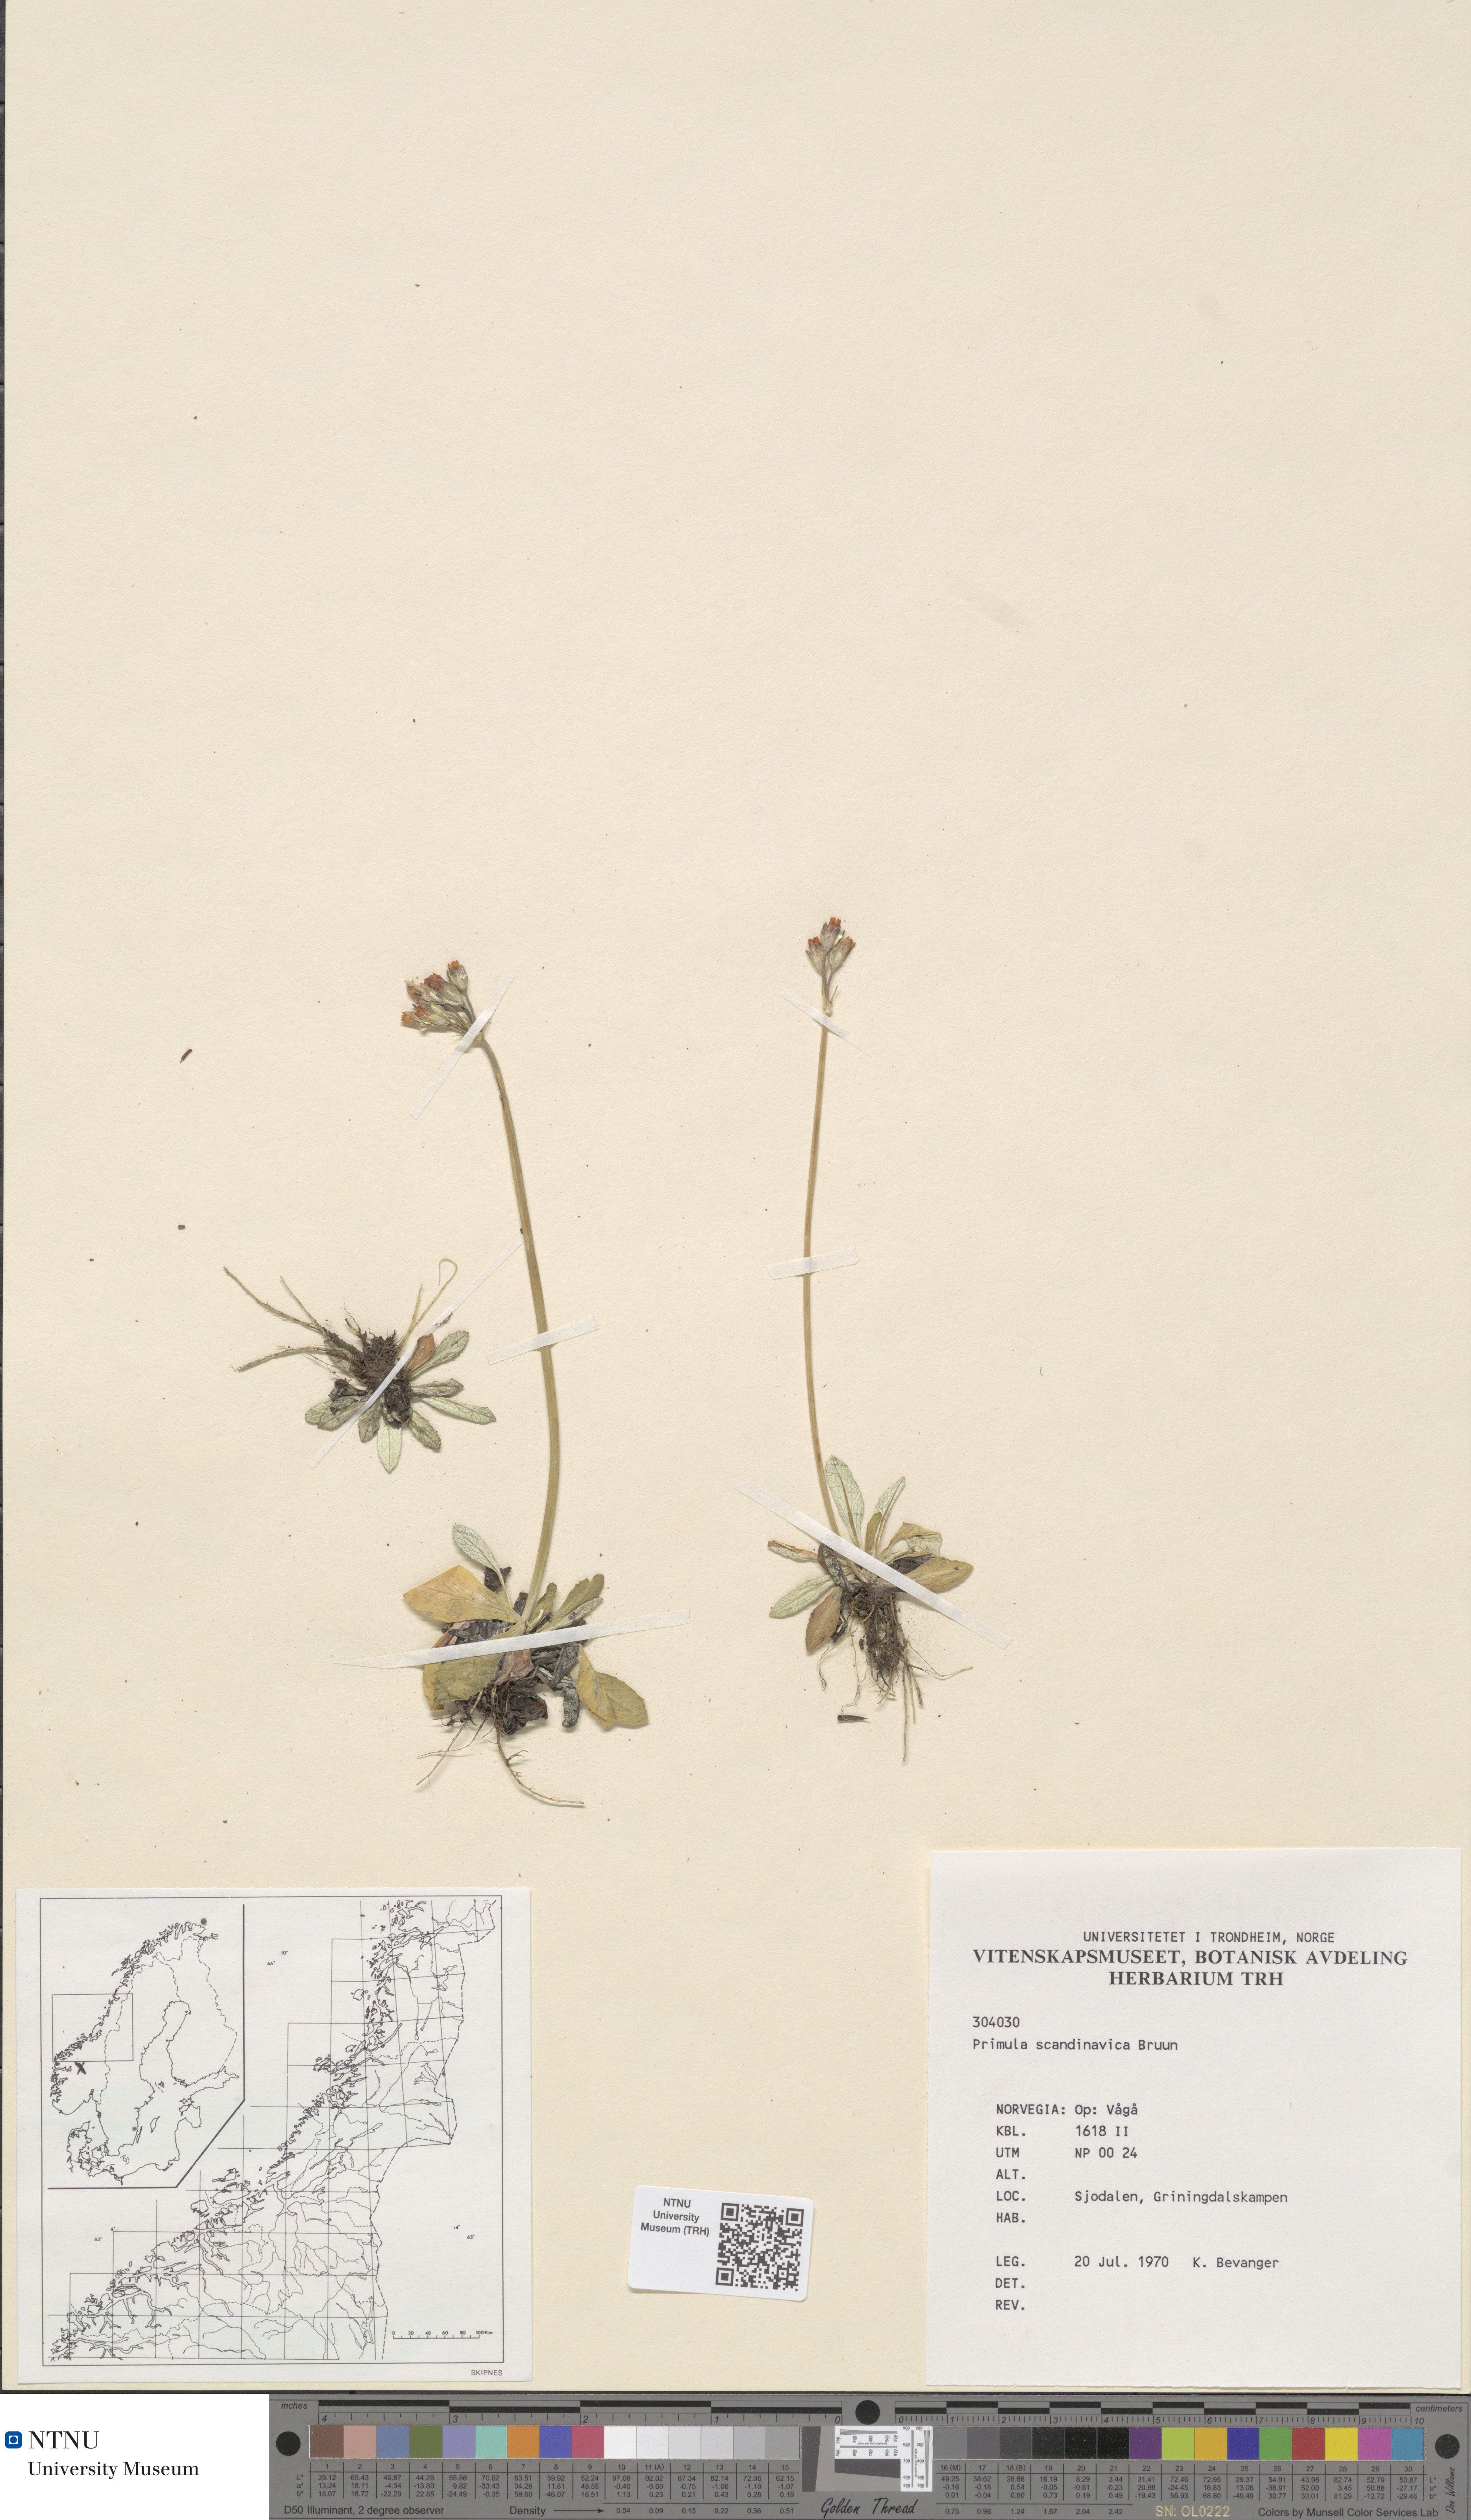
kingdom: Plantae
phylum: Tracheophyta
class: Magnoliopsida
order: Ericales
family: Primulaceae
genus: Primula
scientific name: Primula scandinavica
